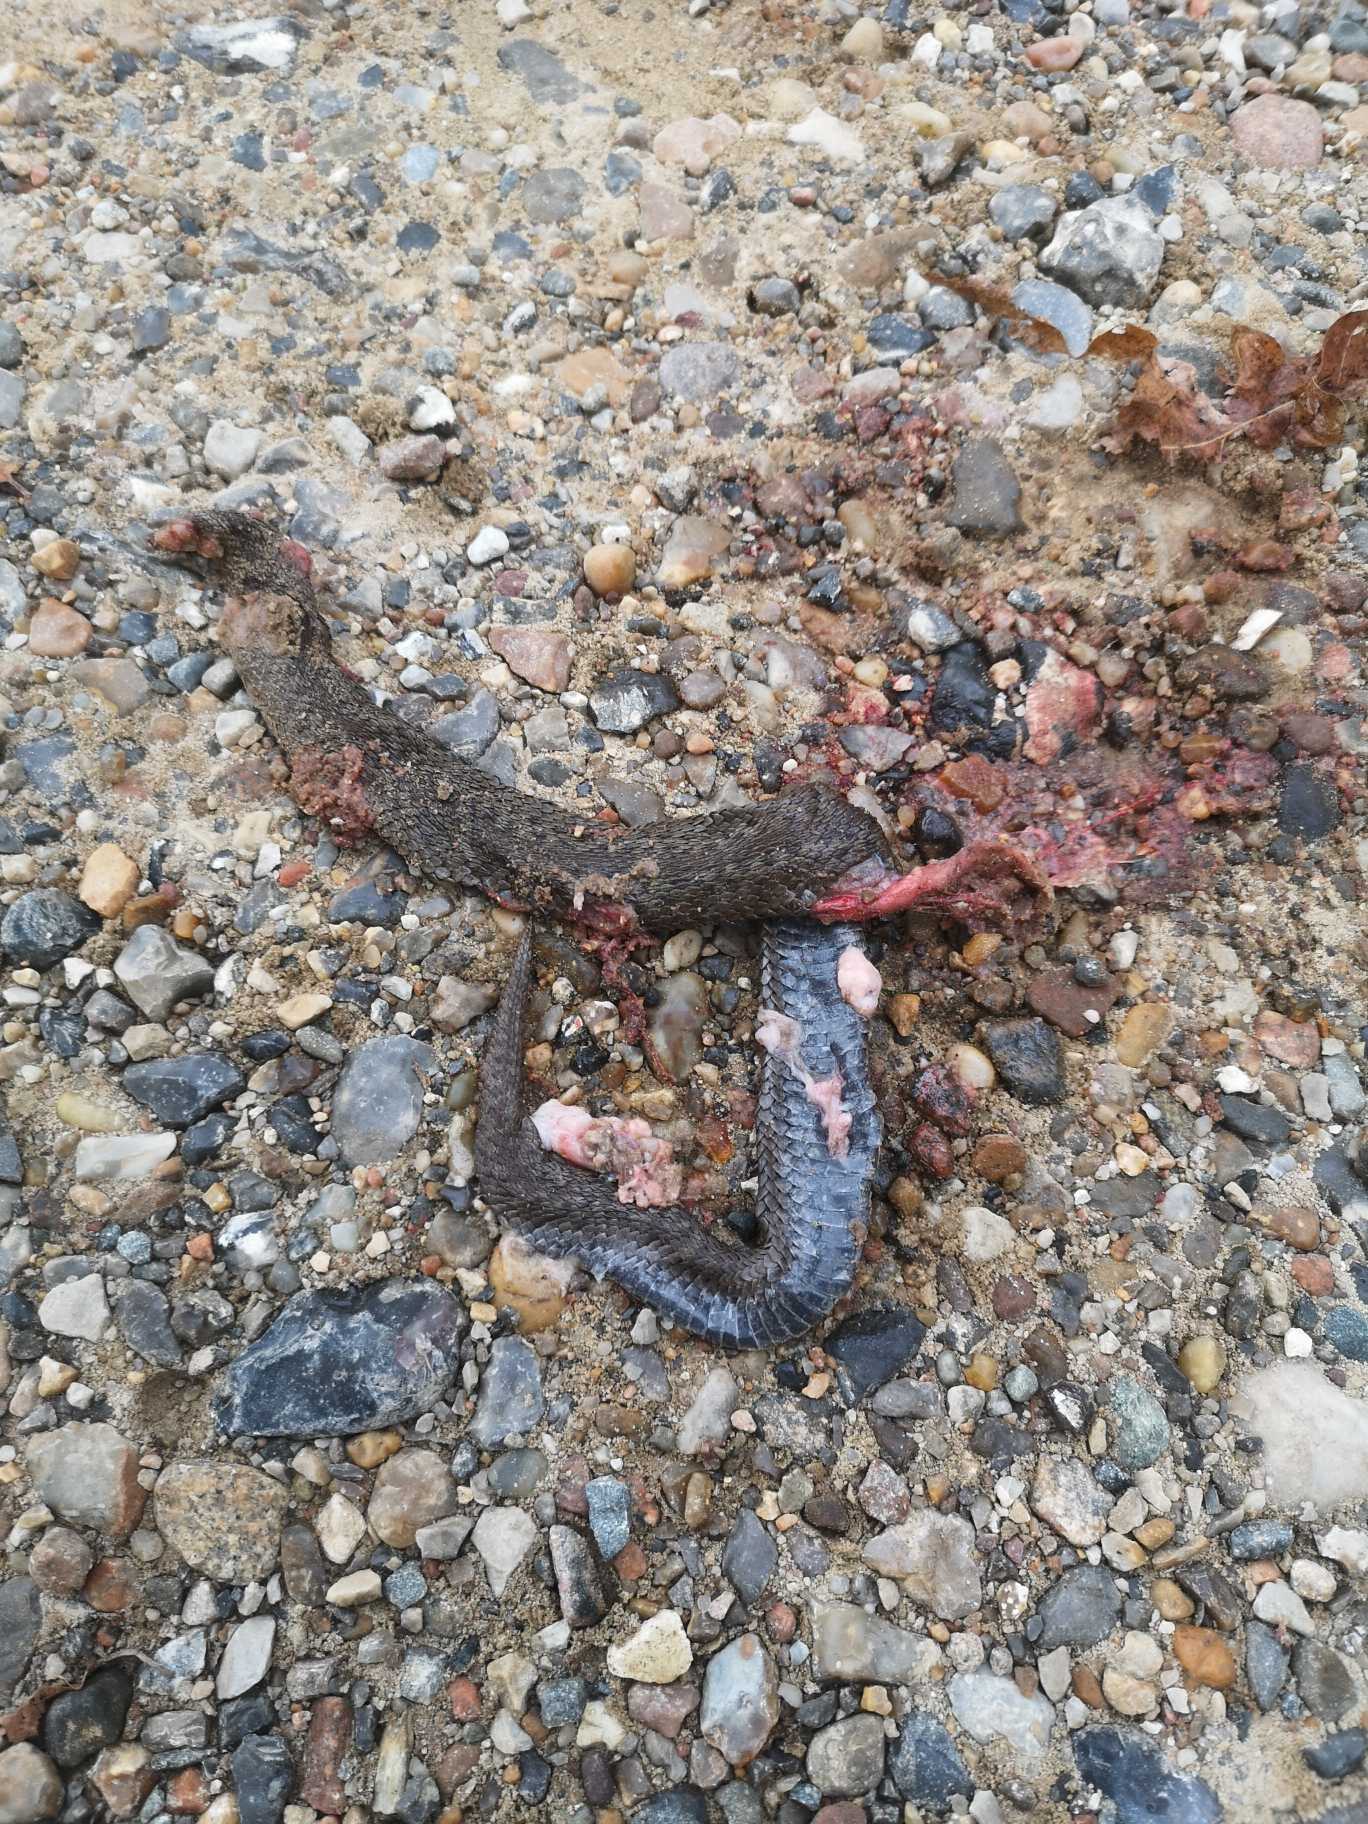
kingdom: Animalia
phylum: Chordata
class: Squamata
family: Viperidae
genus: Vipera
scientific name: Vipera berus
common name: Hugorm
